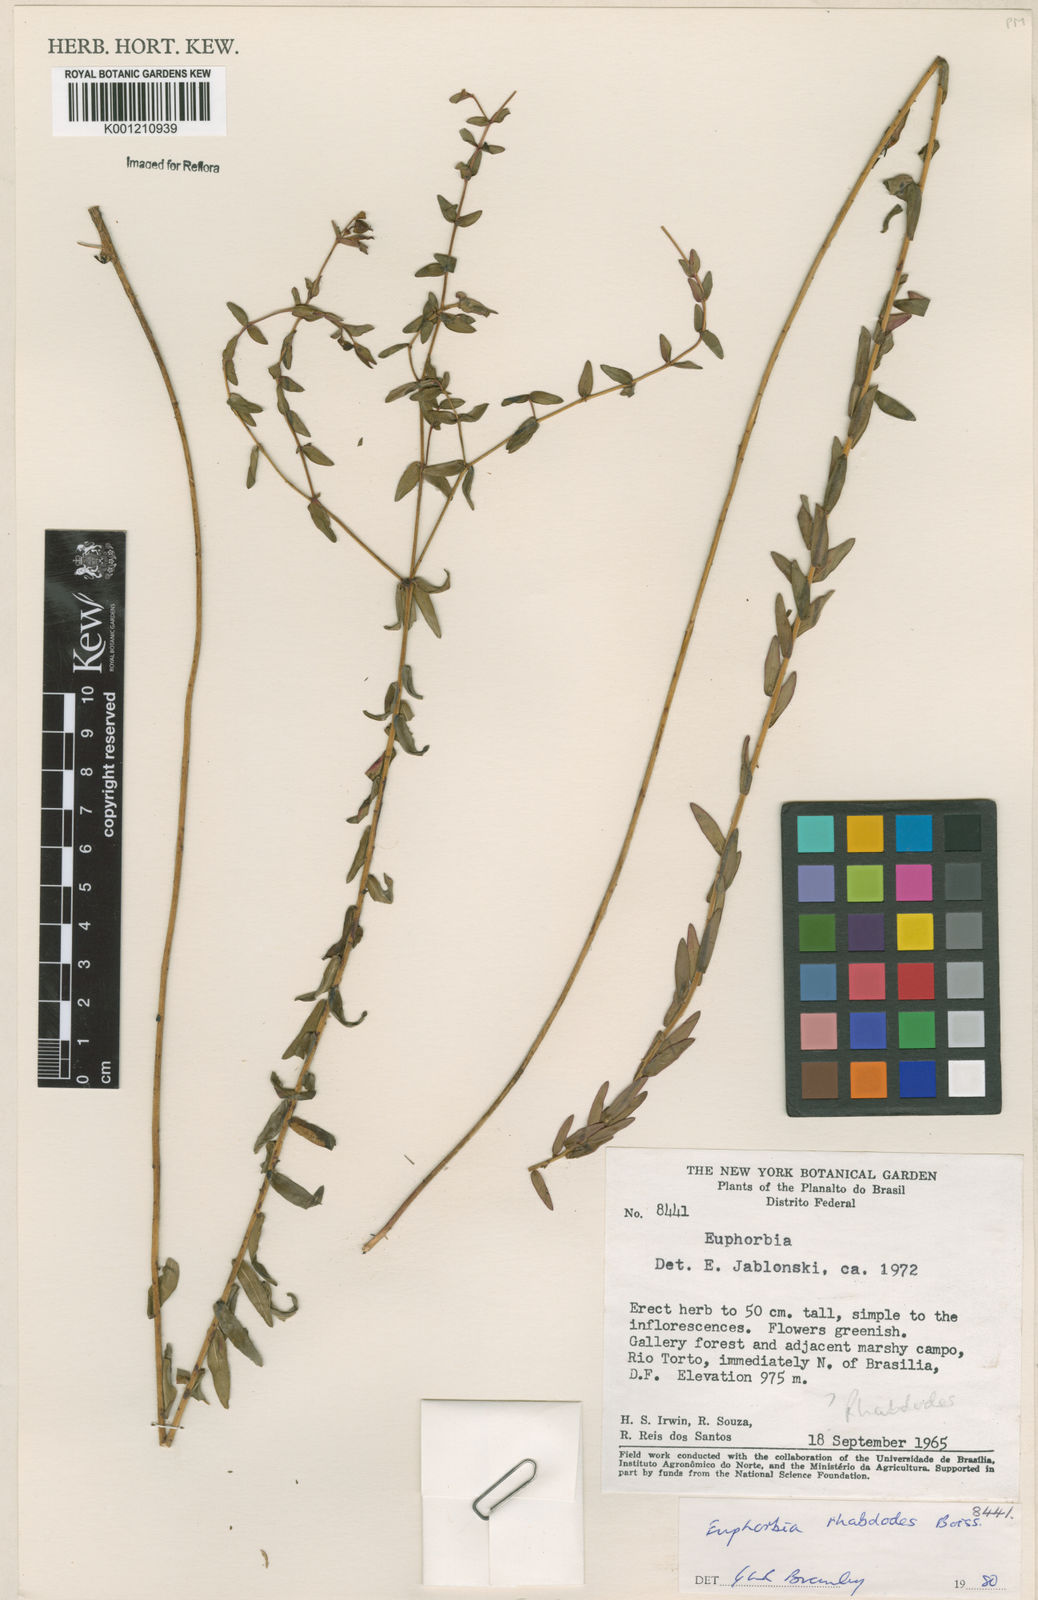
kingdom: Plantae
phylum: Tracheophyta
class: Magnoliopsida
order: Malpighiales
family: Euphorbiaceae
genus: Euphorbia
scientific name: Euphorbia rhabdodes
